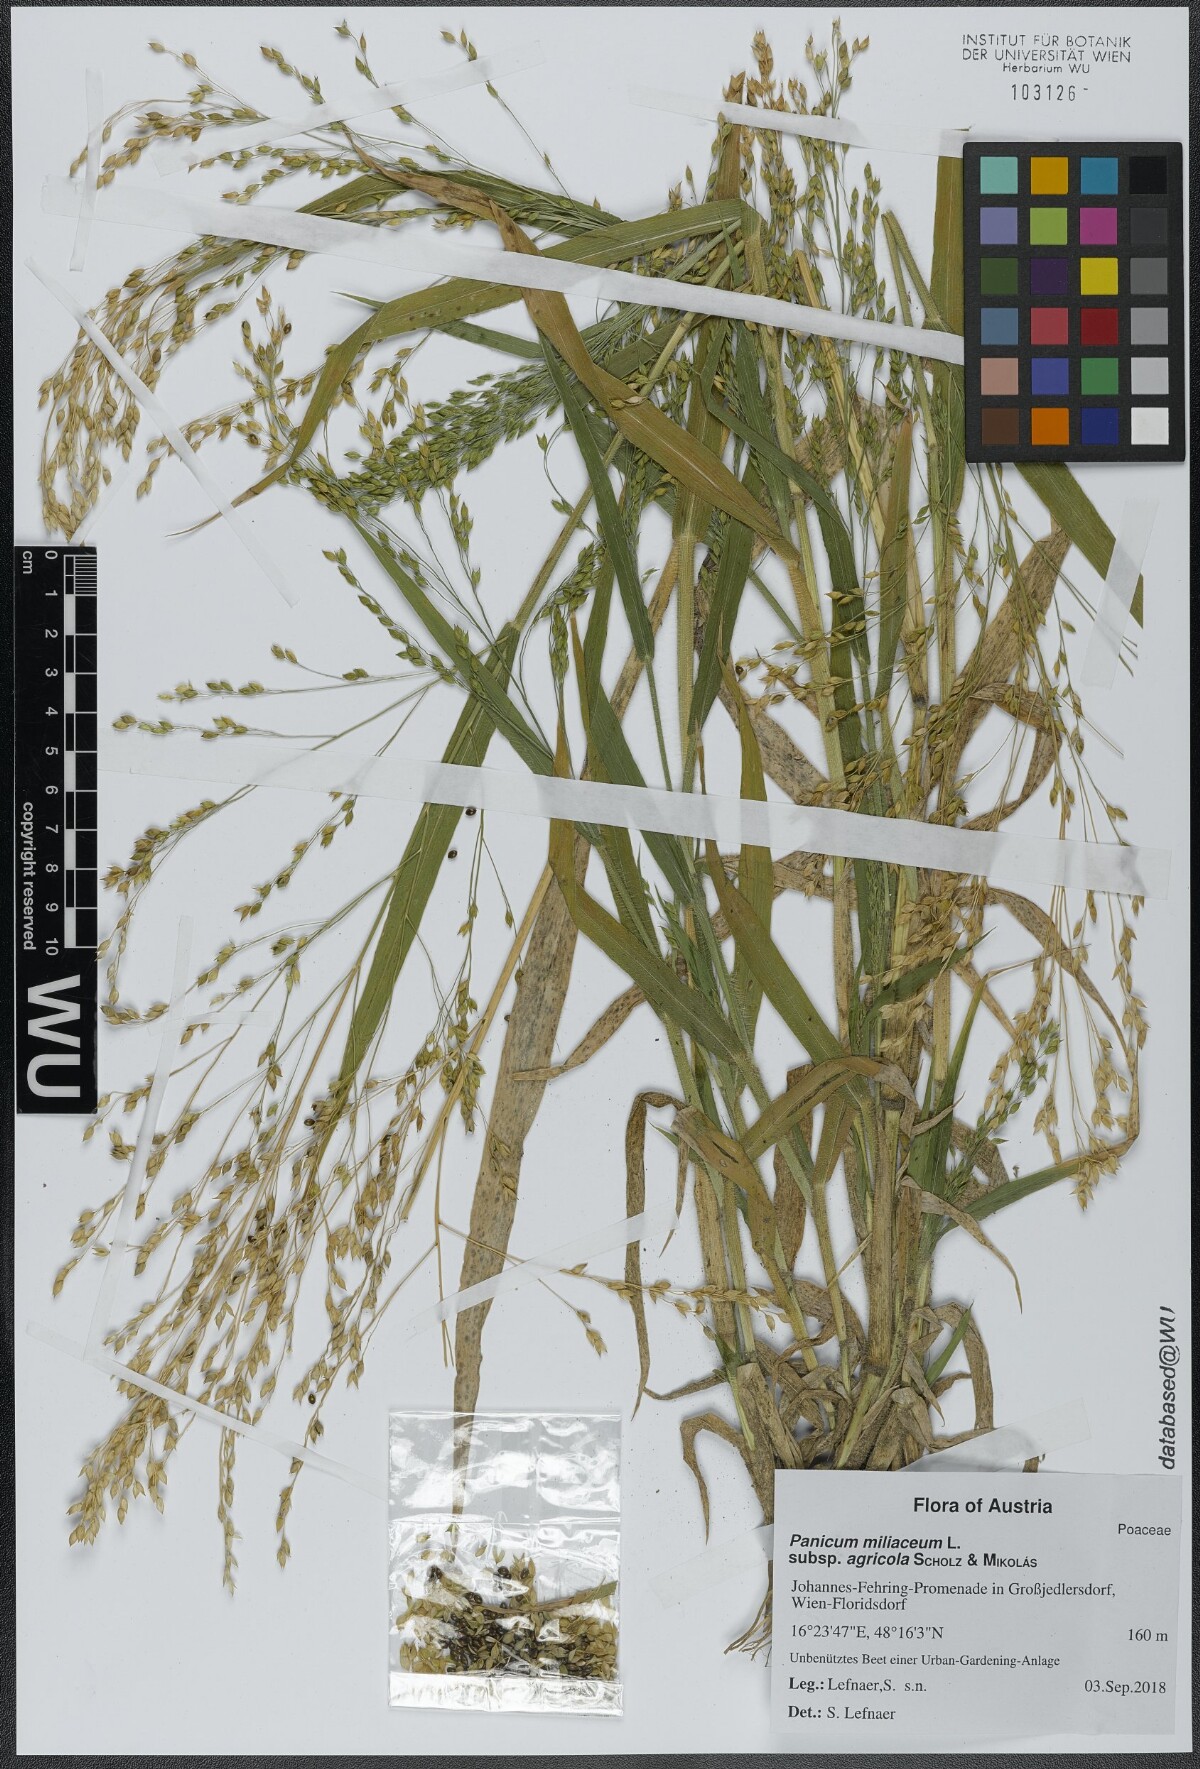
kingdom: Plantae
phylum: Tracheophyta
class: Liliopsida
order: Poales
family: Poaceae
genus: Panicum
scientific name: Panicum miliaceum
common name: Common millet
